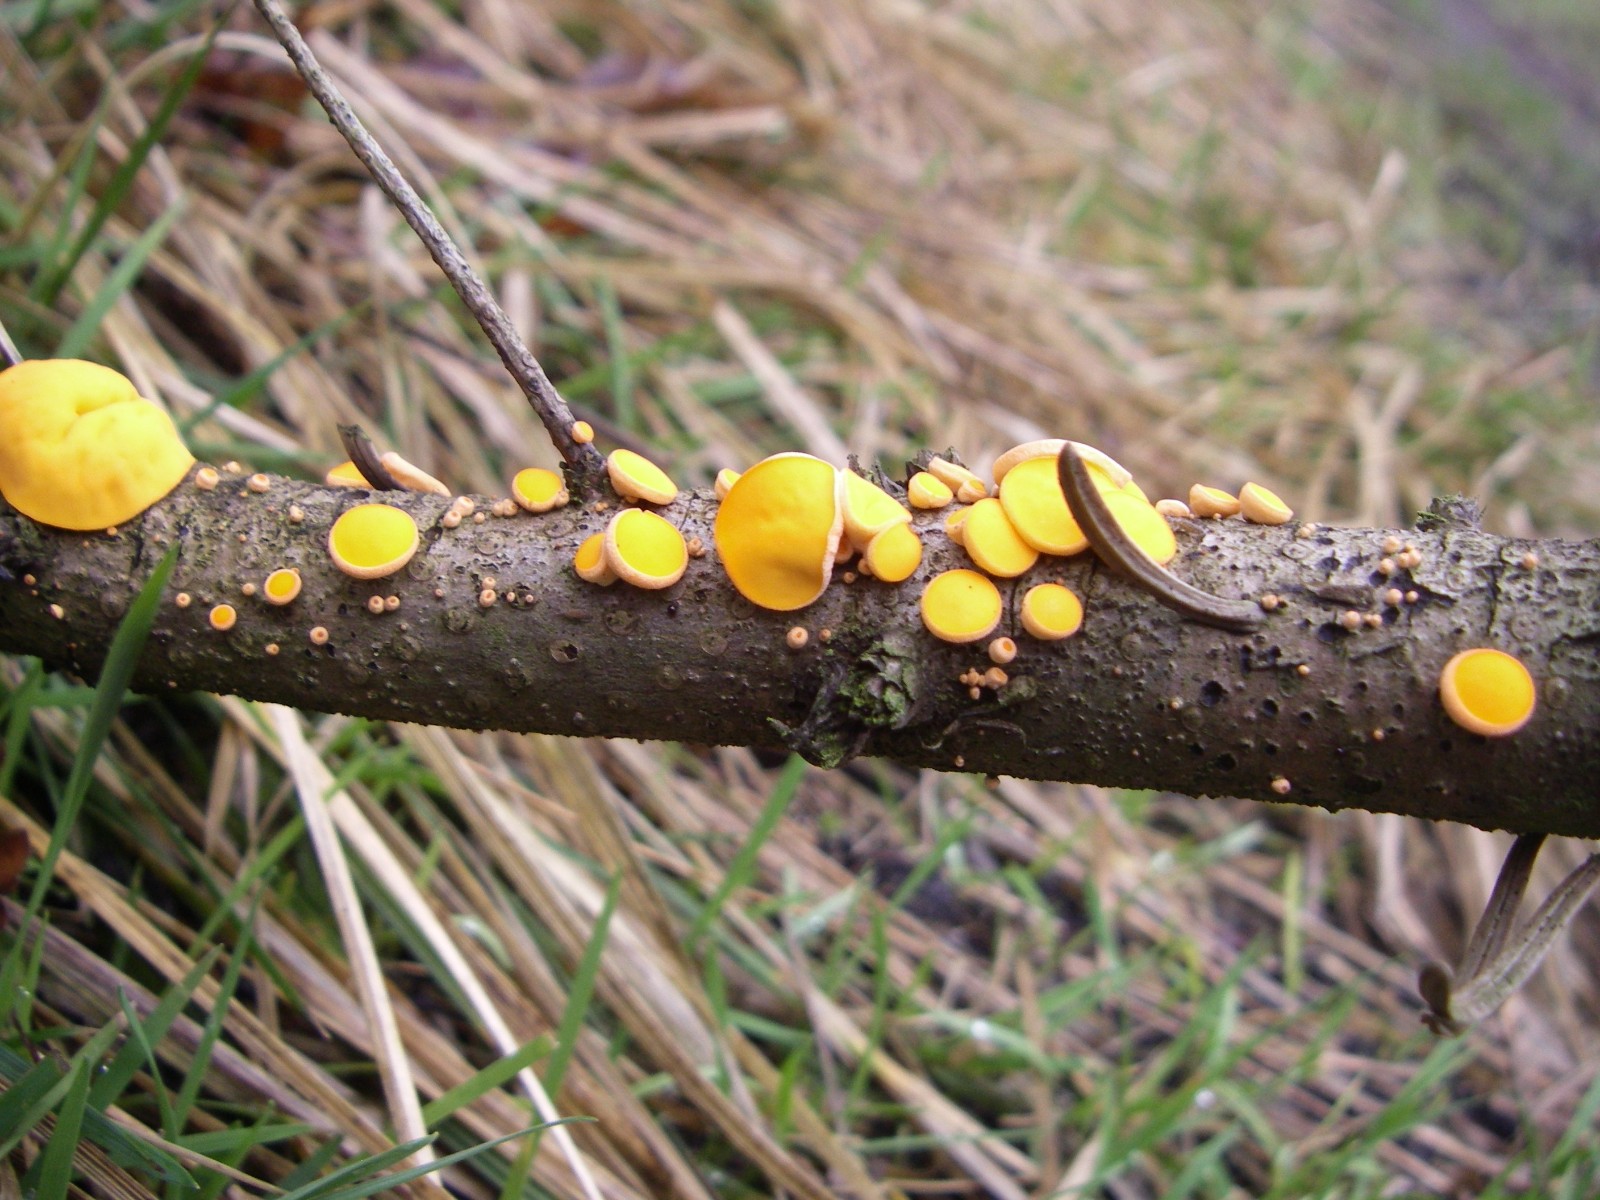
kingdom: Fungi
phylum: Ascomycota
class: Pezizomycetes
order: Pezizales
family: Sarcoscyphaceae
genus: Pithya
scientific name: Pithya vulgaris
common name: stor dukatbæger
